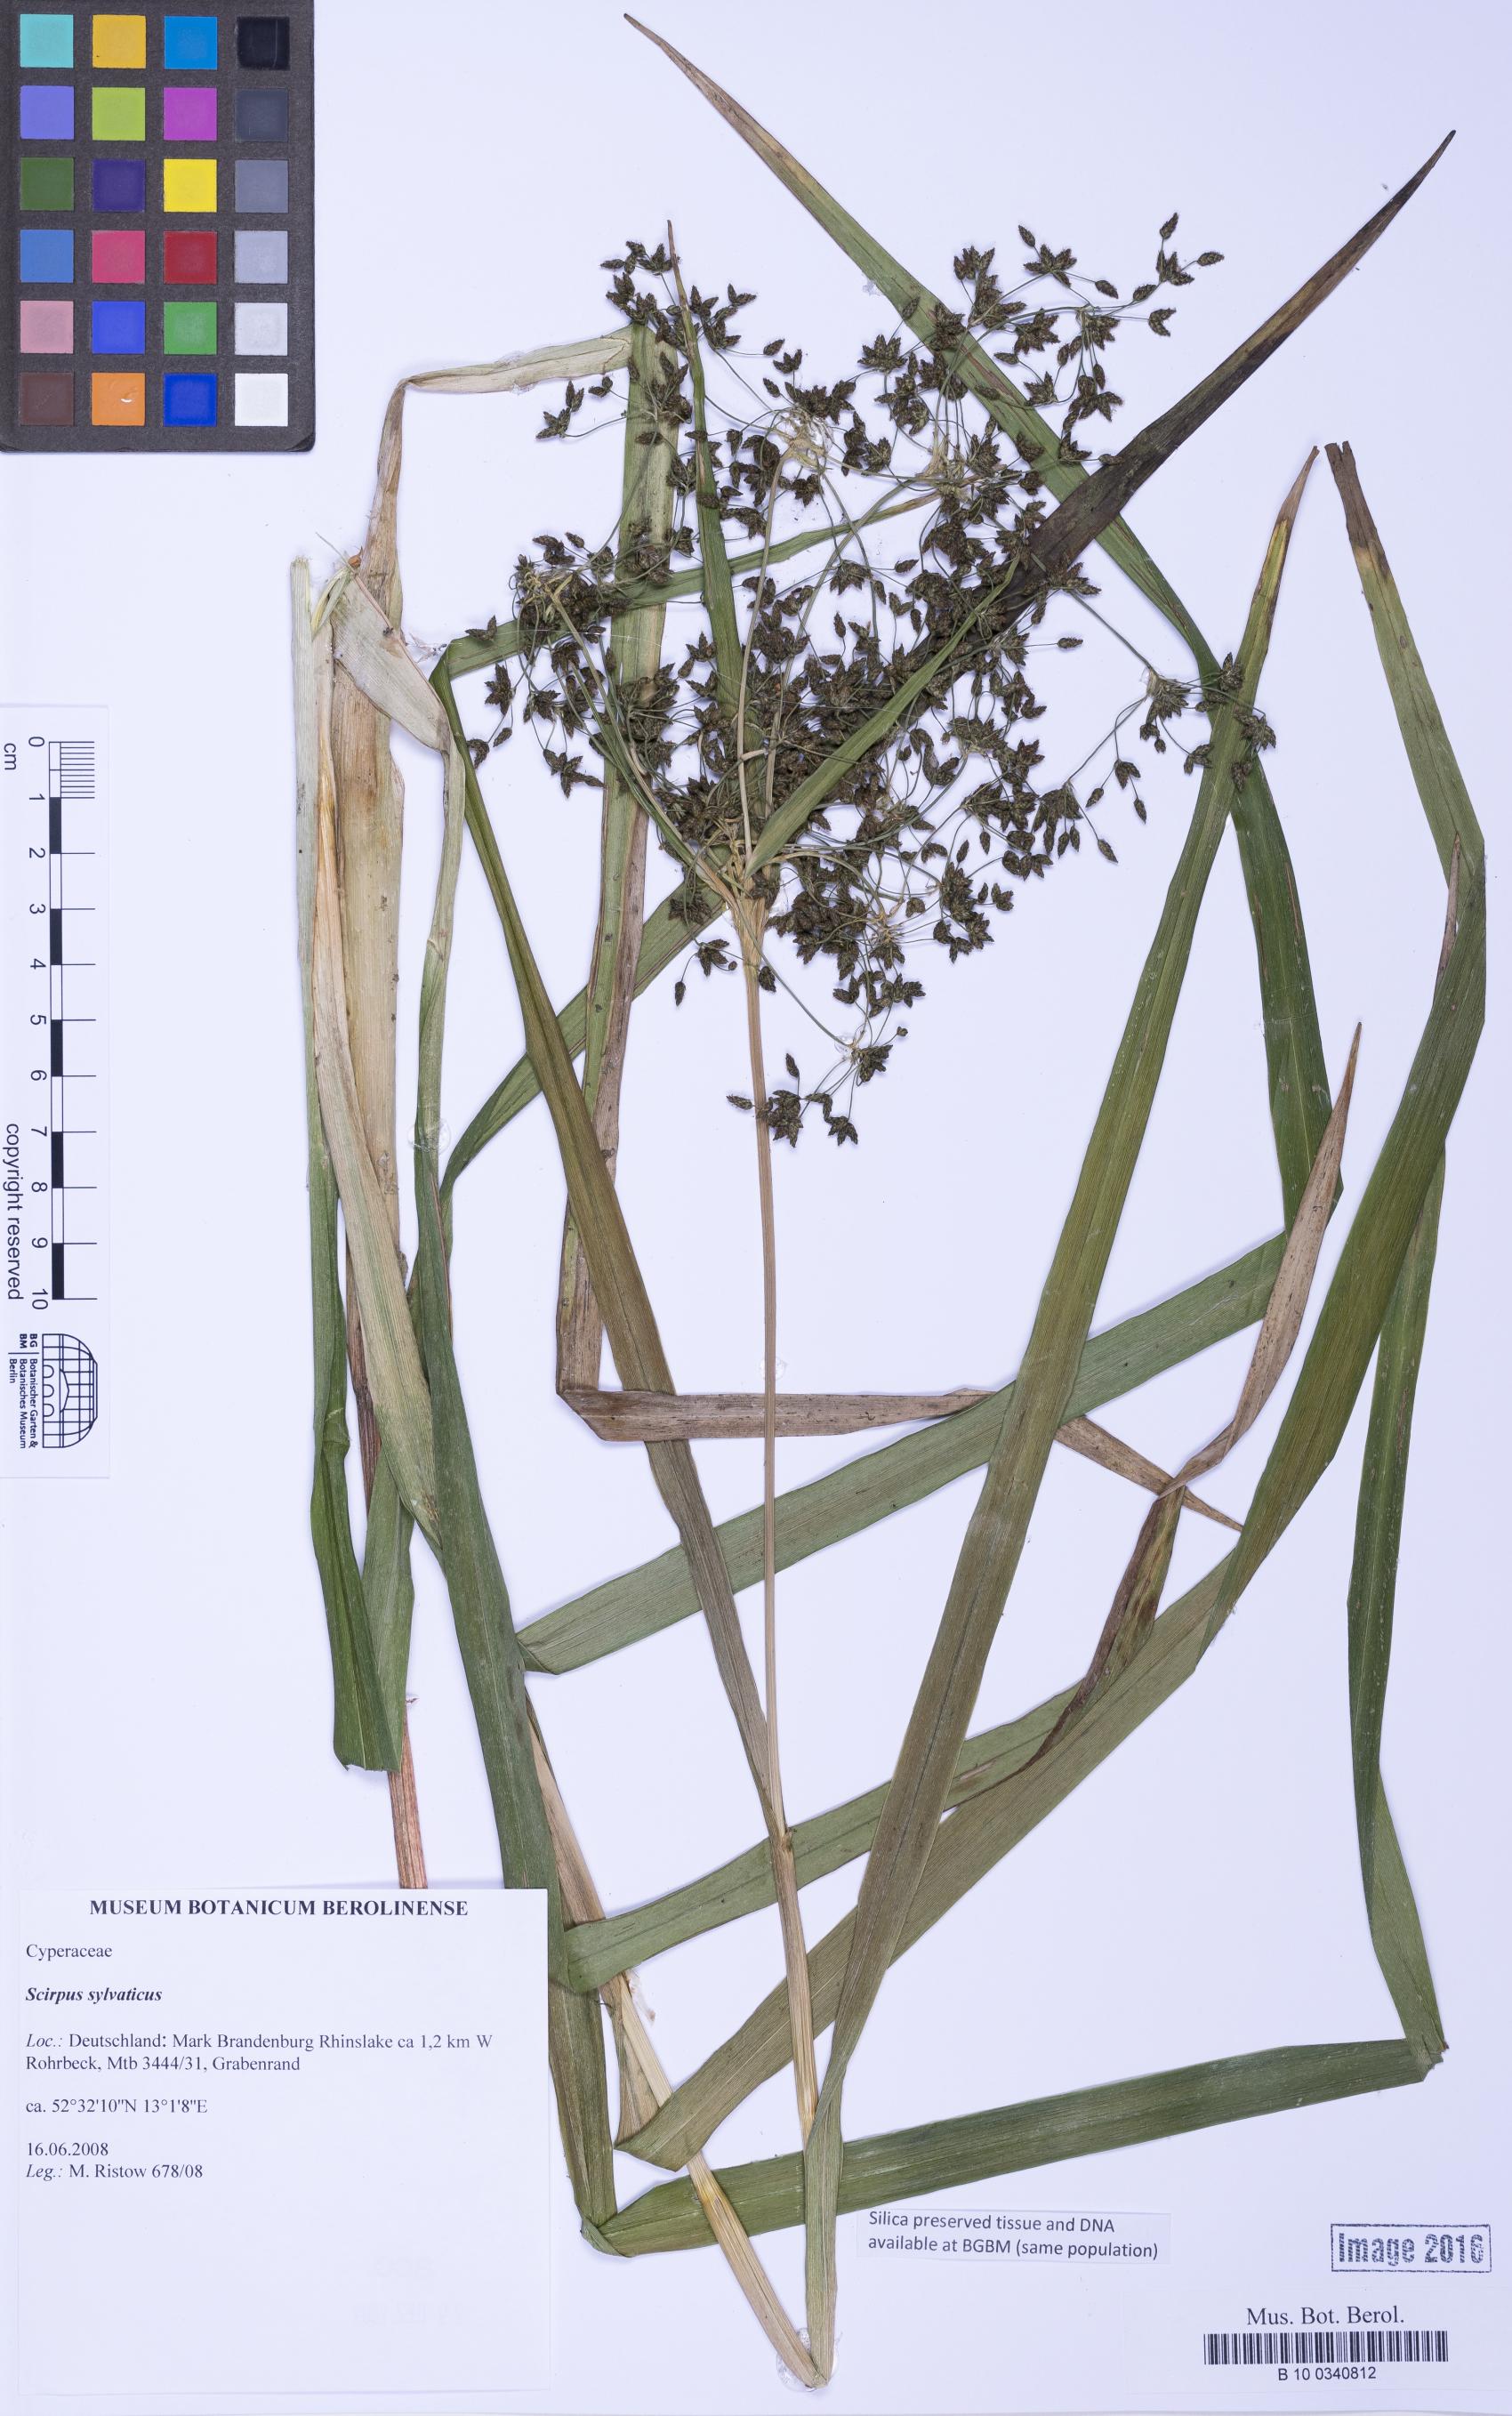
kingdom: Plantae
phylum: Tracheophyta
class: Liliopsida
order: Poales
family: Cyperaceae
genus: Scirpus
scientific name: Scirpus sylvaticus
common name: Wood club-rush
